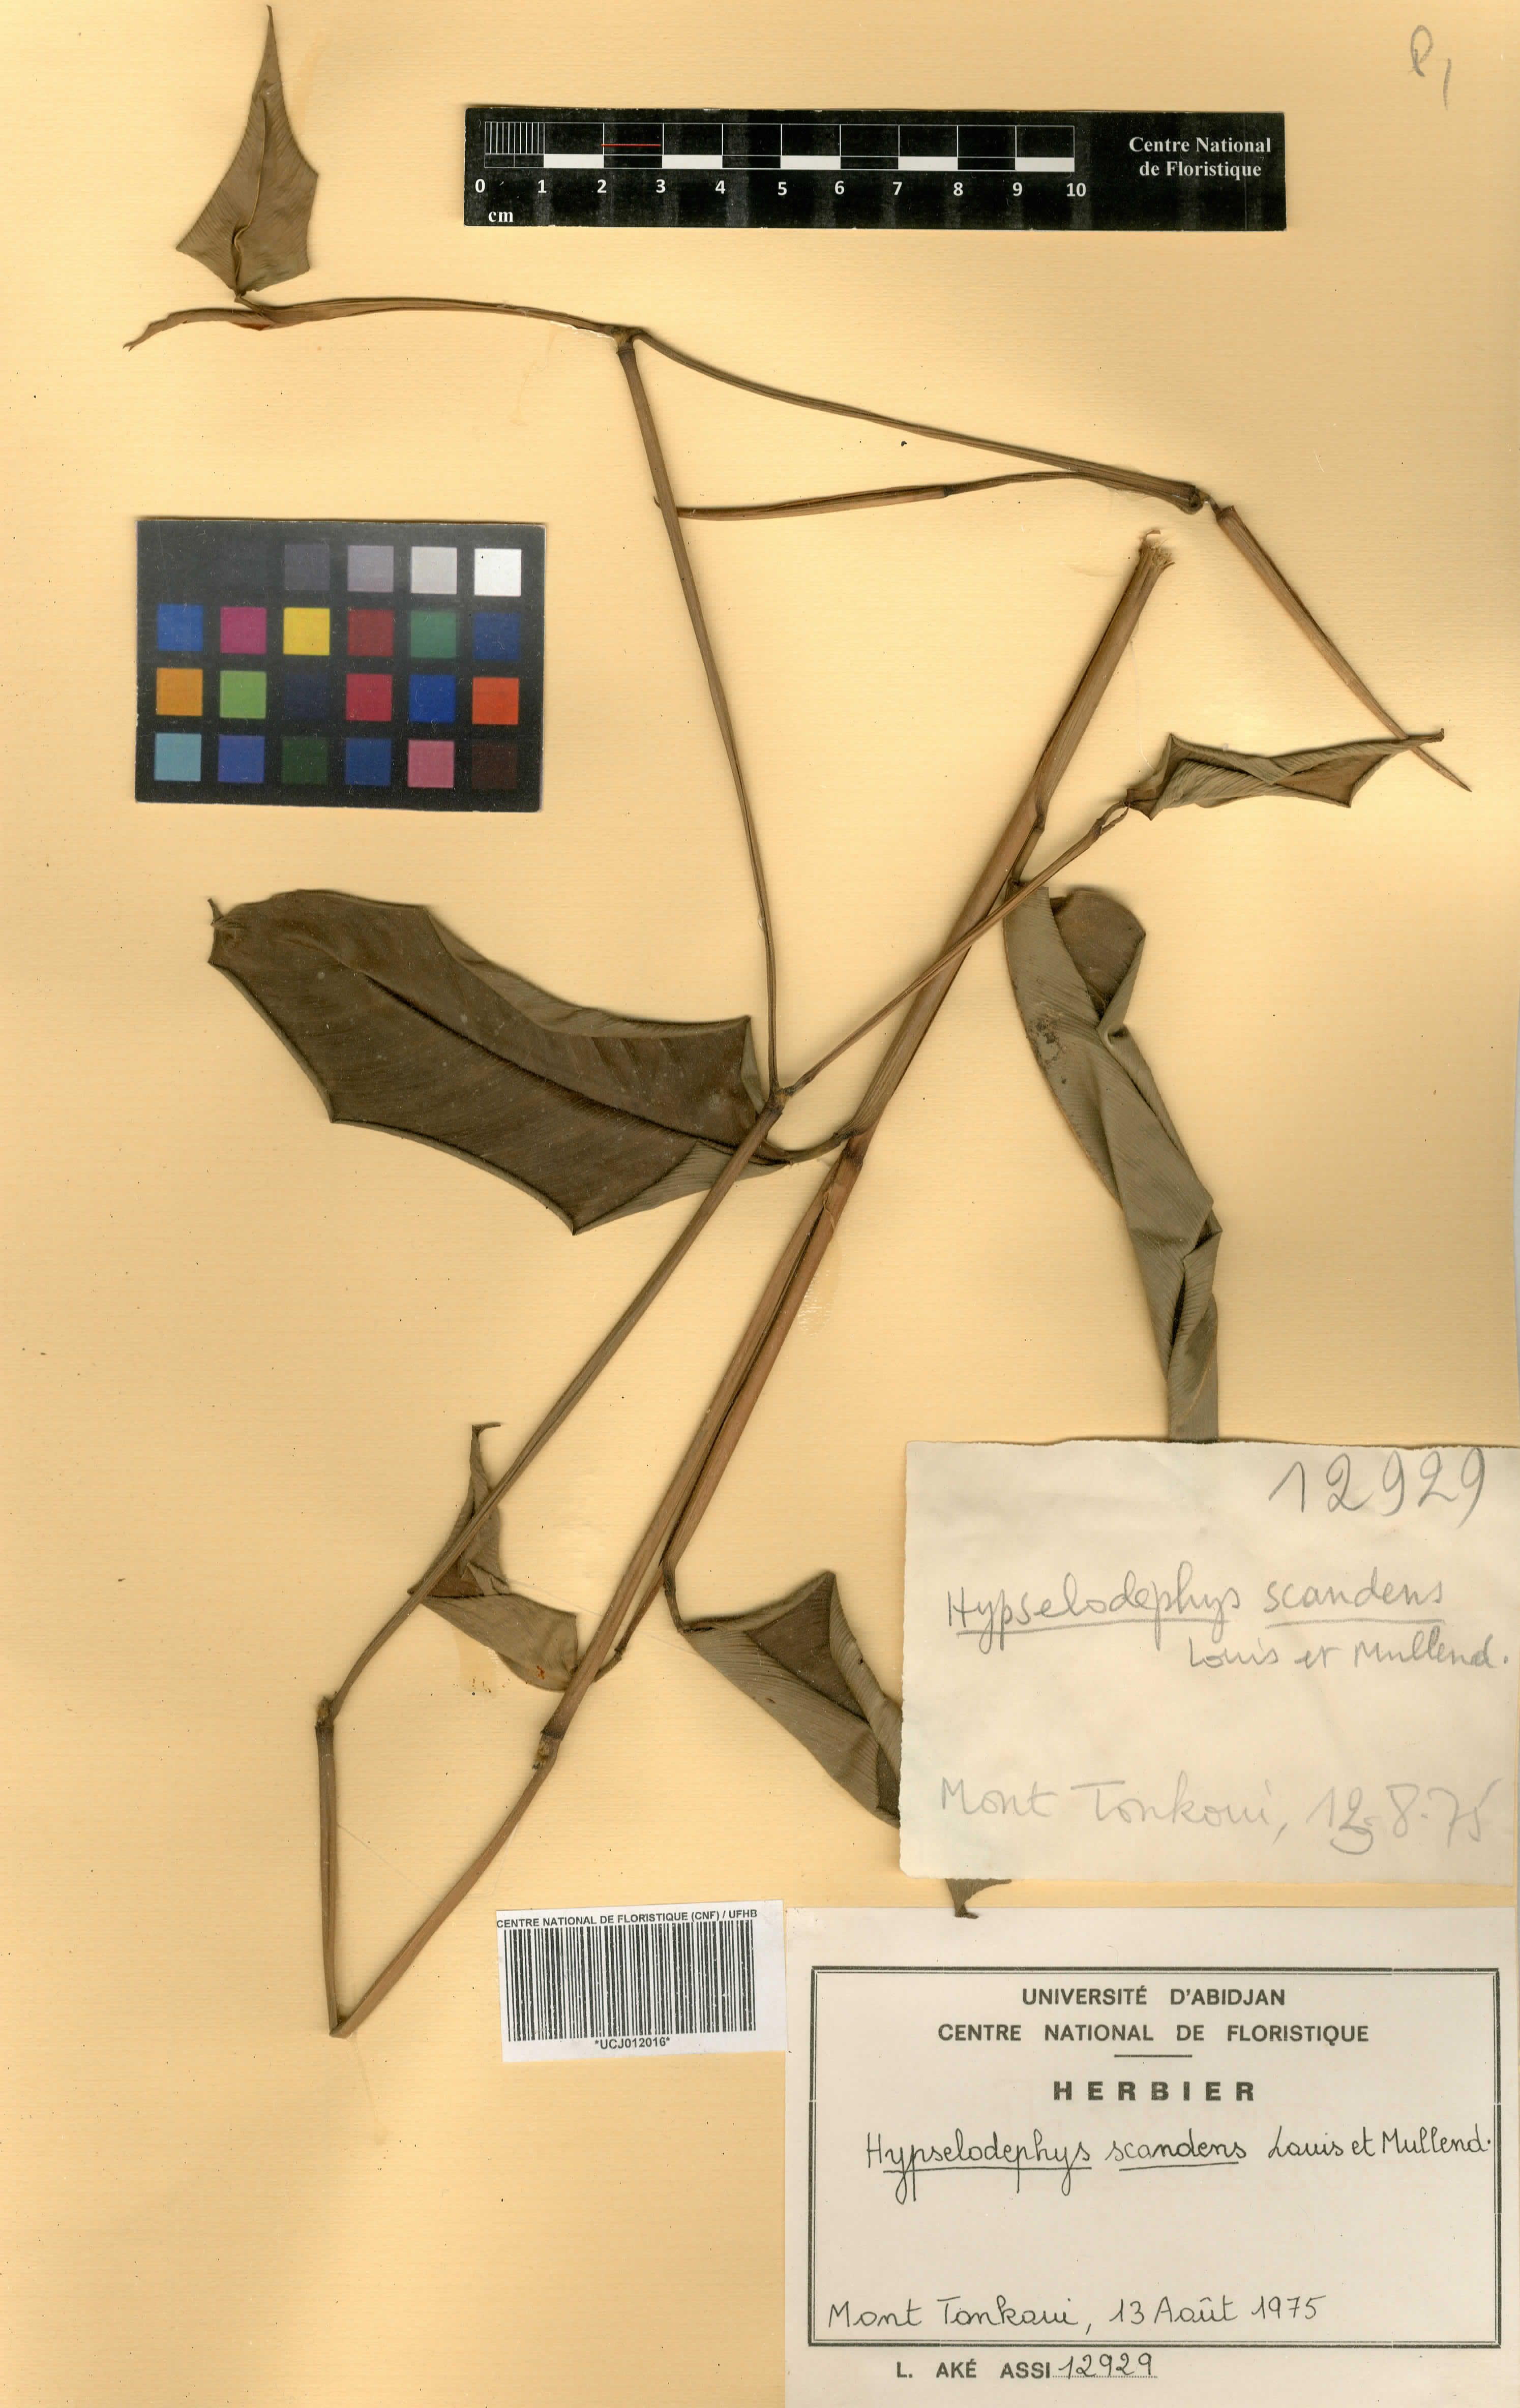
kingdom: Plantae
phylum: Tracheophyta
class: Liliopsida
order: Zingiberales
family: Marantaceae
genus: Hypselodelphys
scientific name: Hypselodelphys scandens
